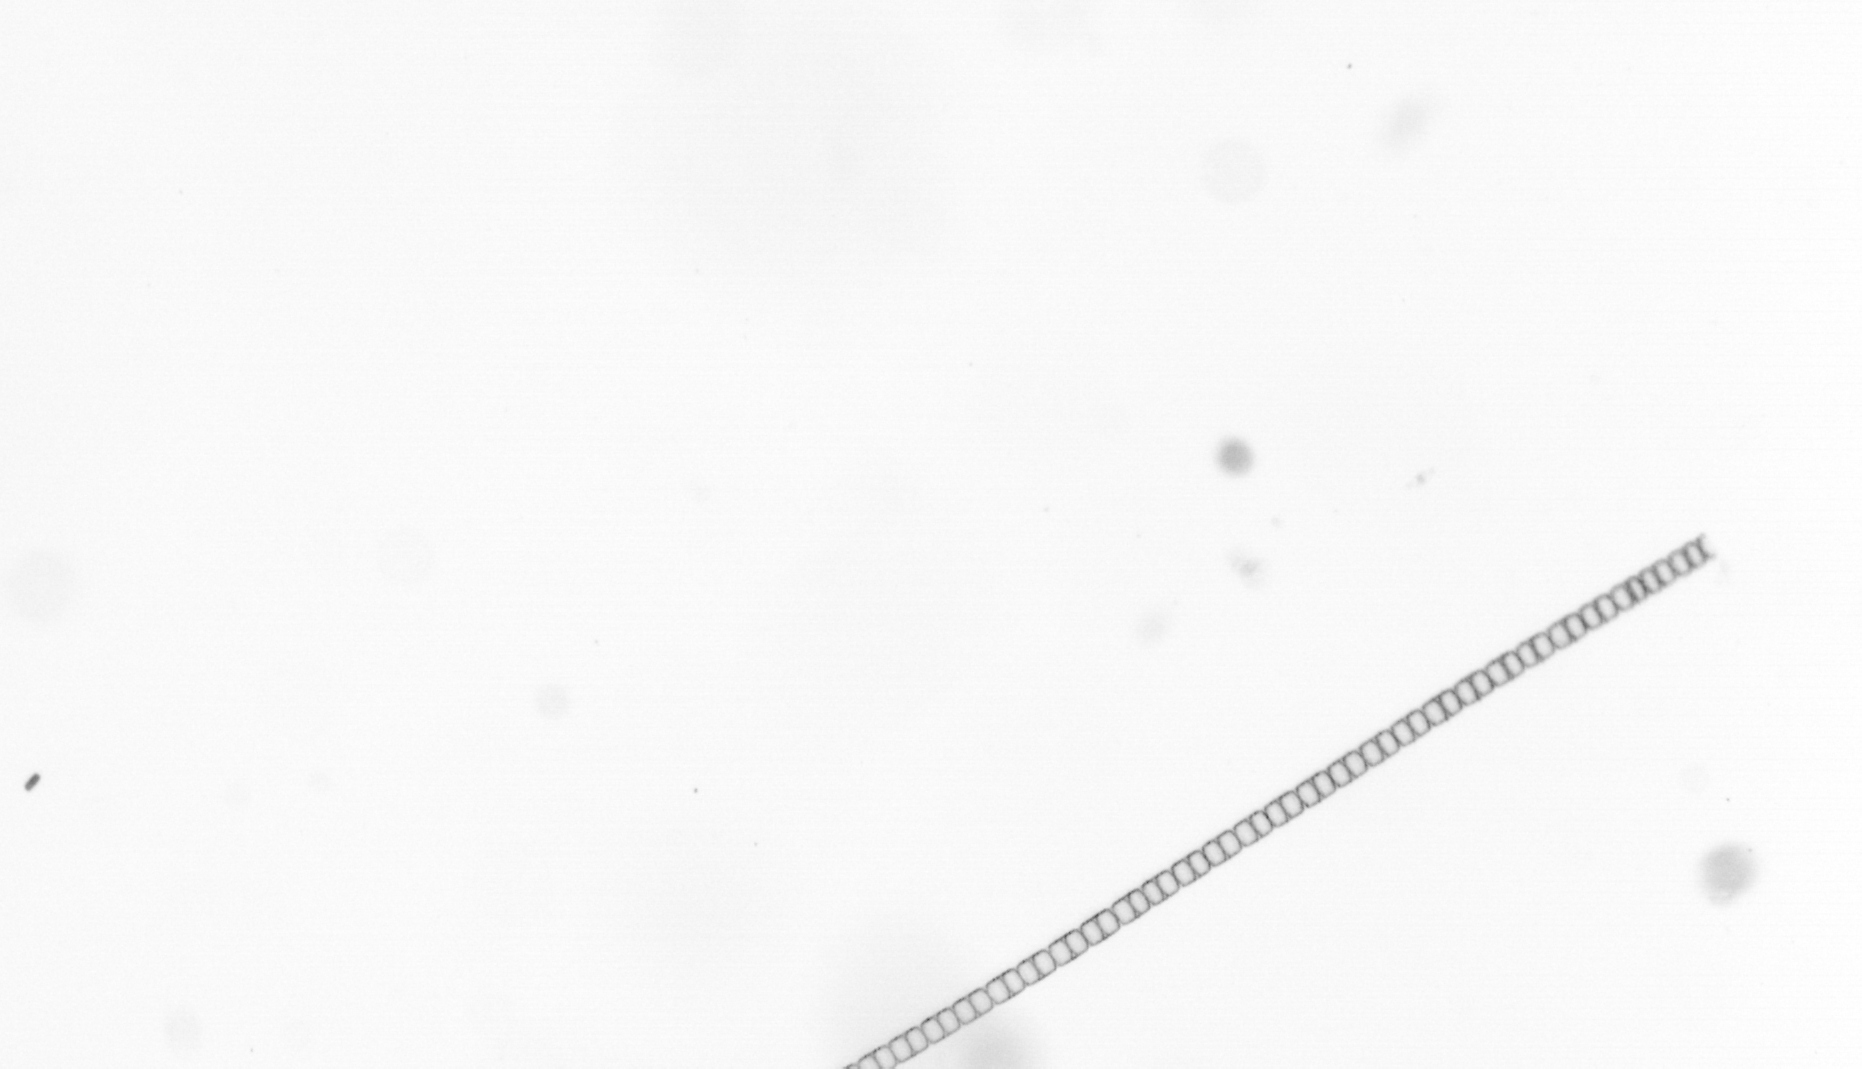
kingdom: Chromista
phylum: Ochrophyta
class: Bacillariophyceae
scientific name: Bacillariophyceae
